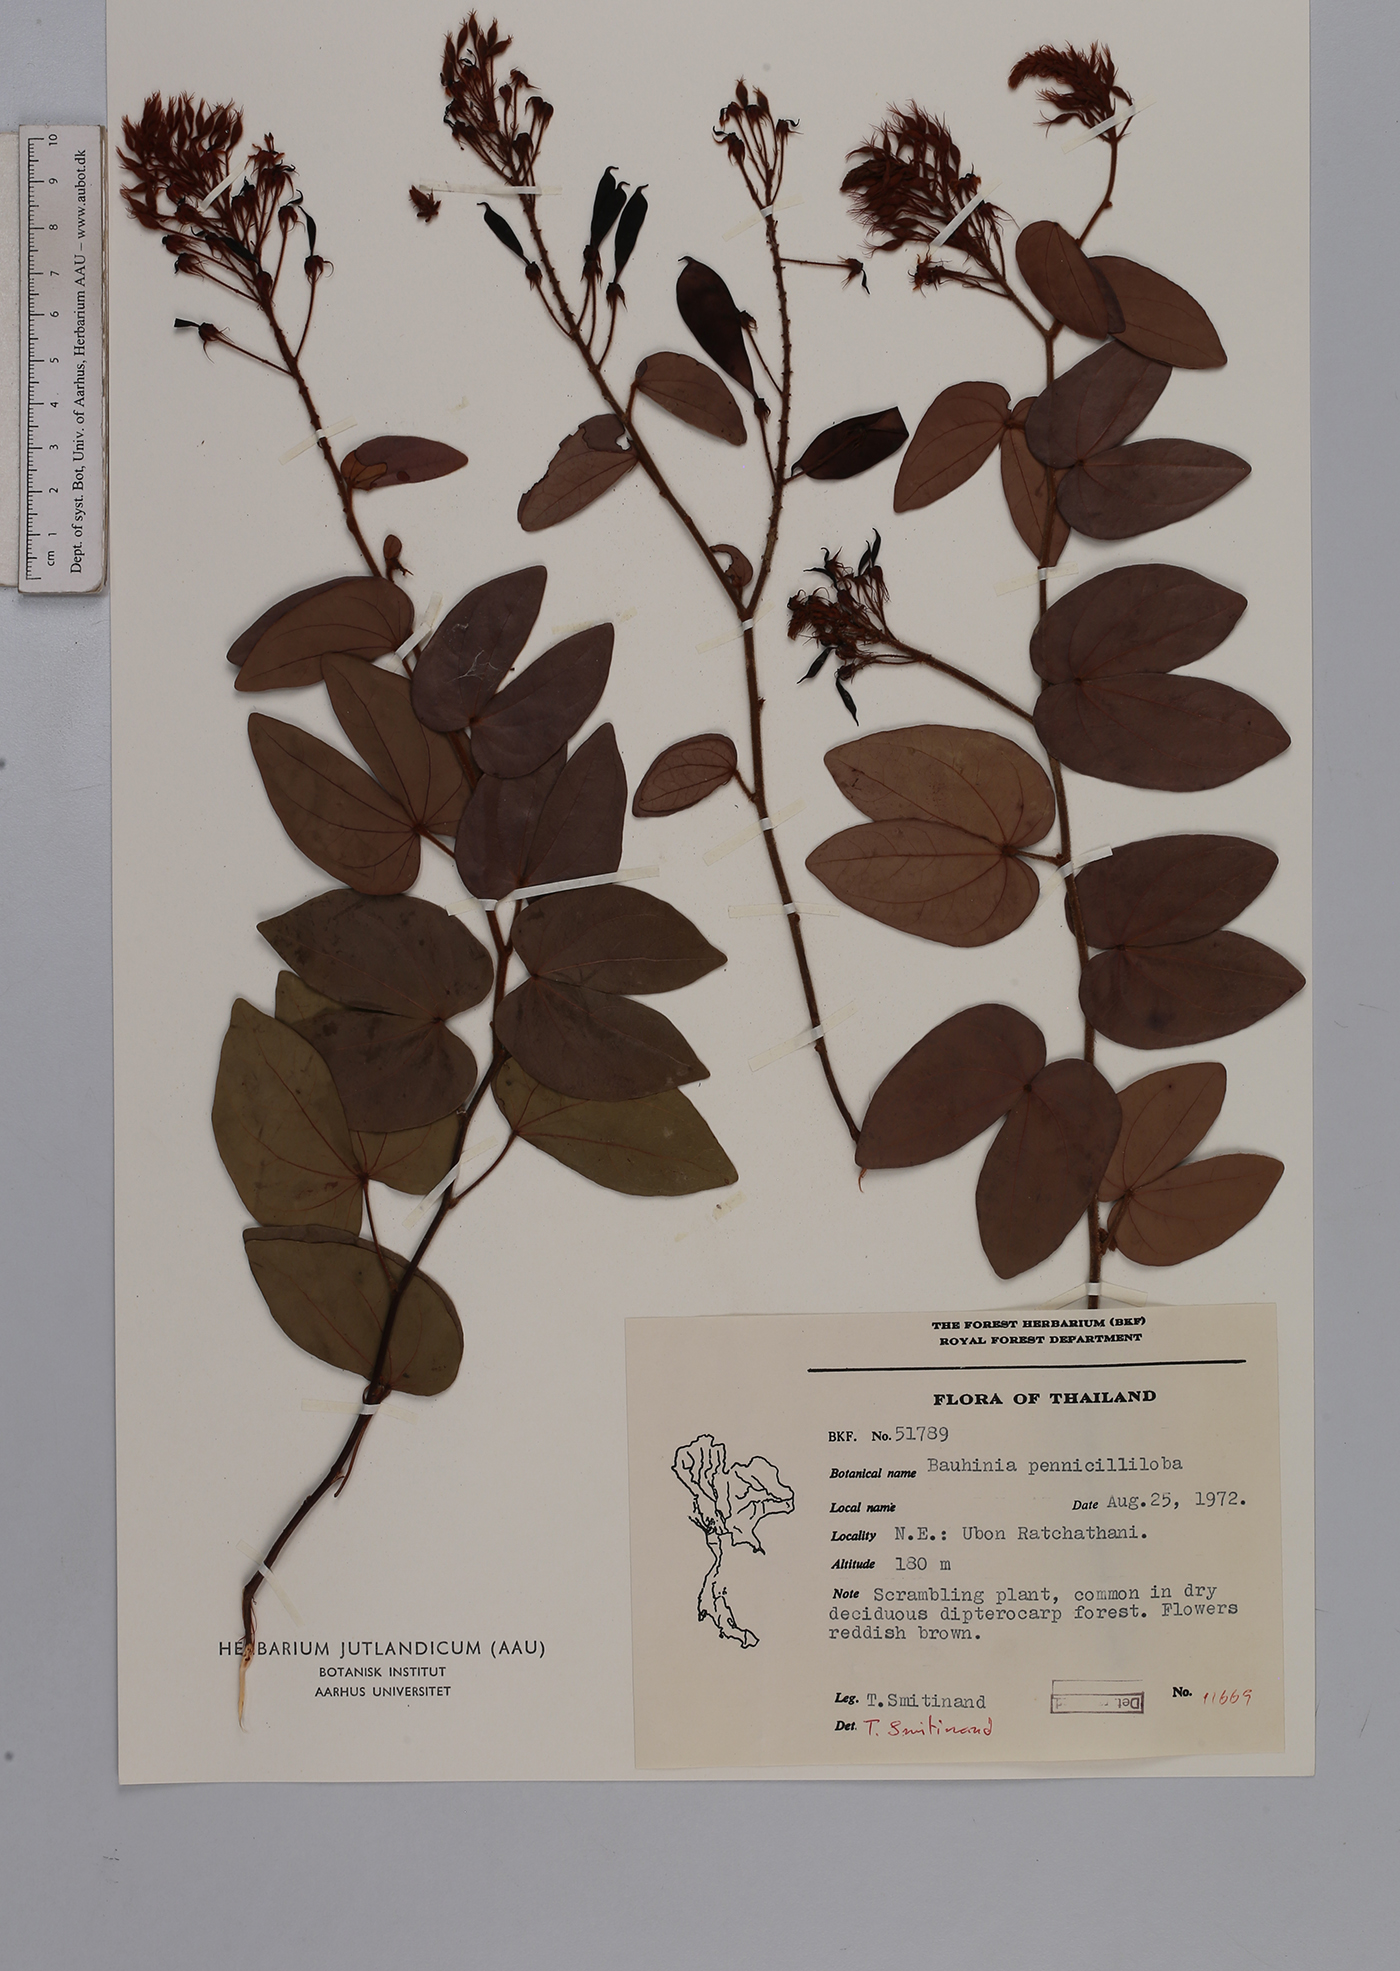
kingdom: Plantae
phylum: Tracheophyta
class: Magnoliopsida
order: Fabales
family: Fabaceae
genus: Phanera
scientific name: Phanera penicilliloba
